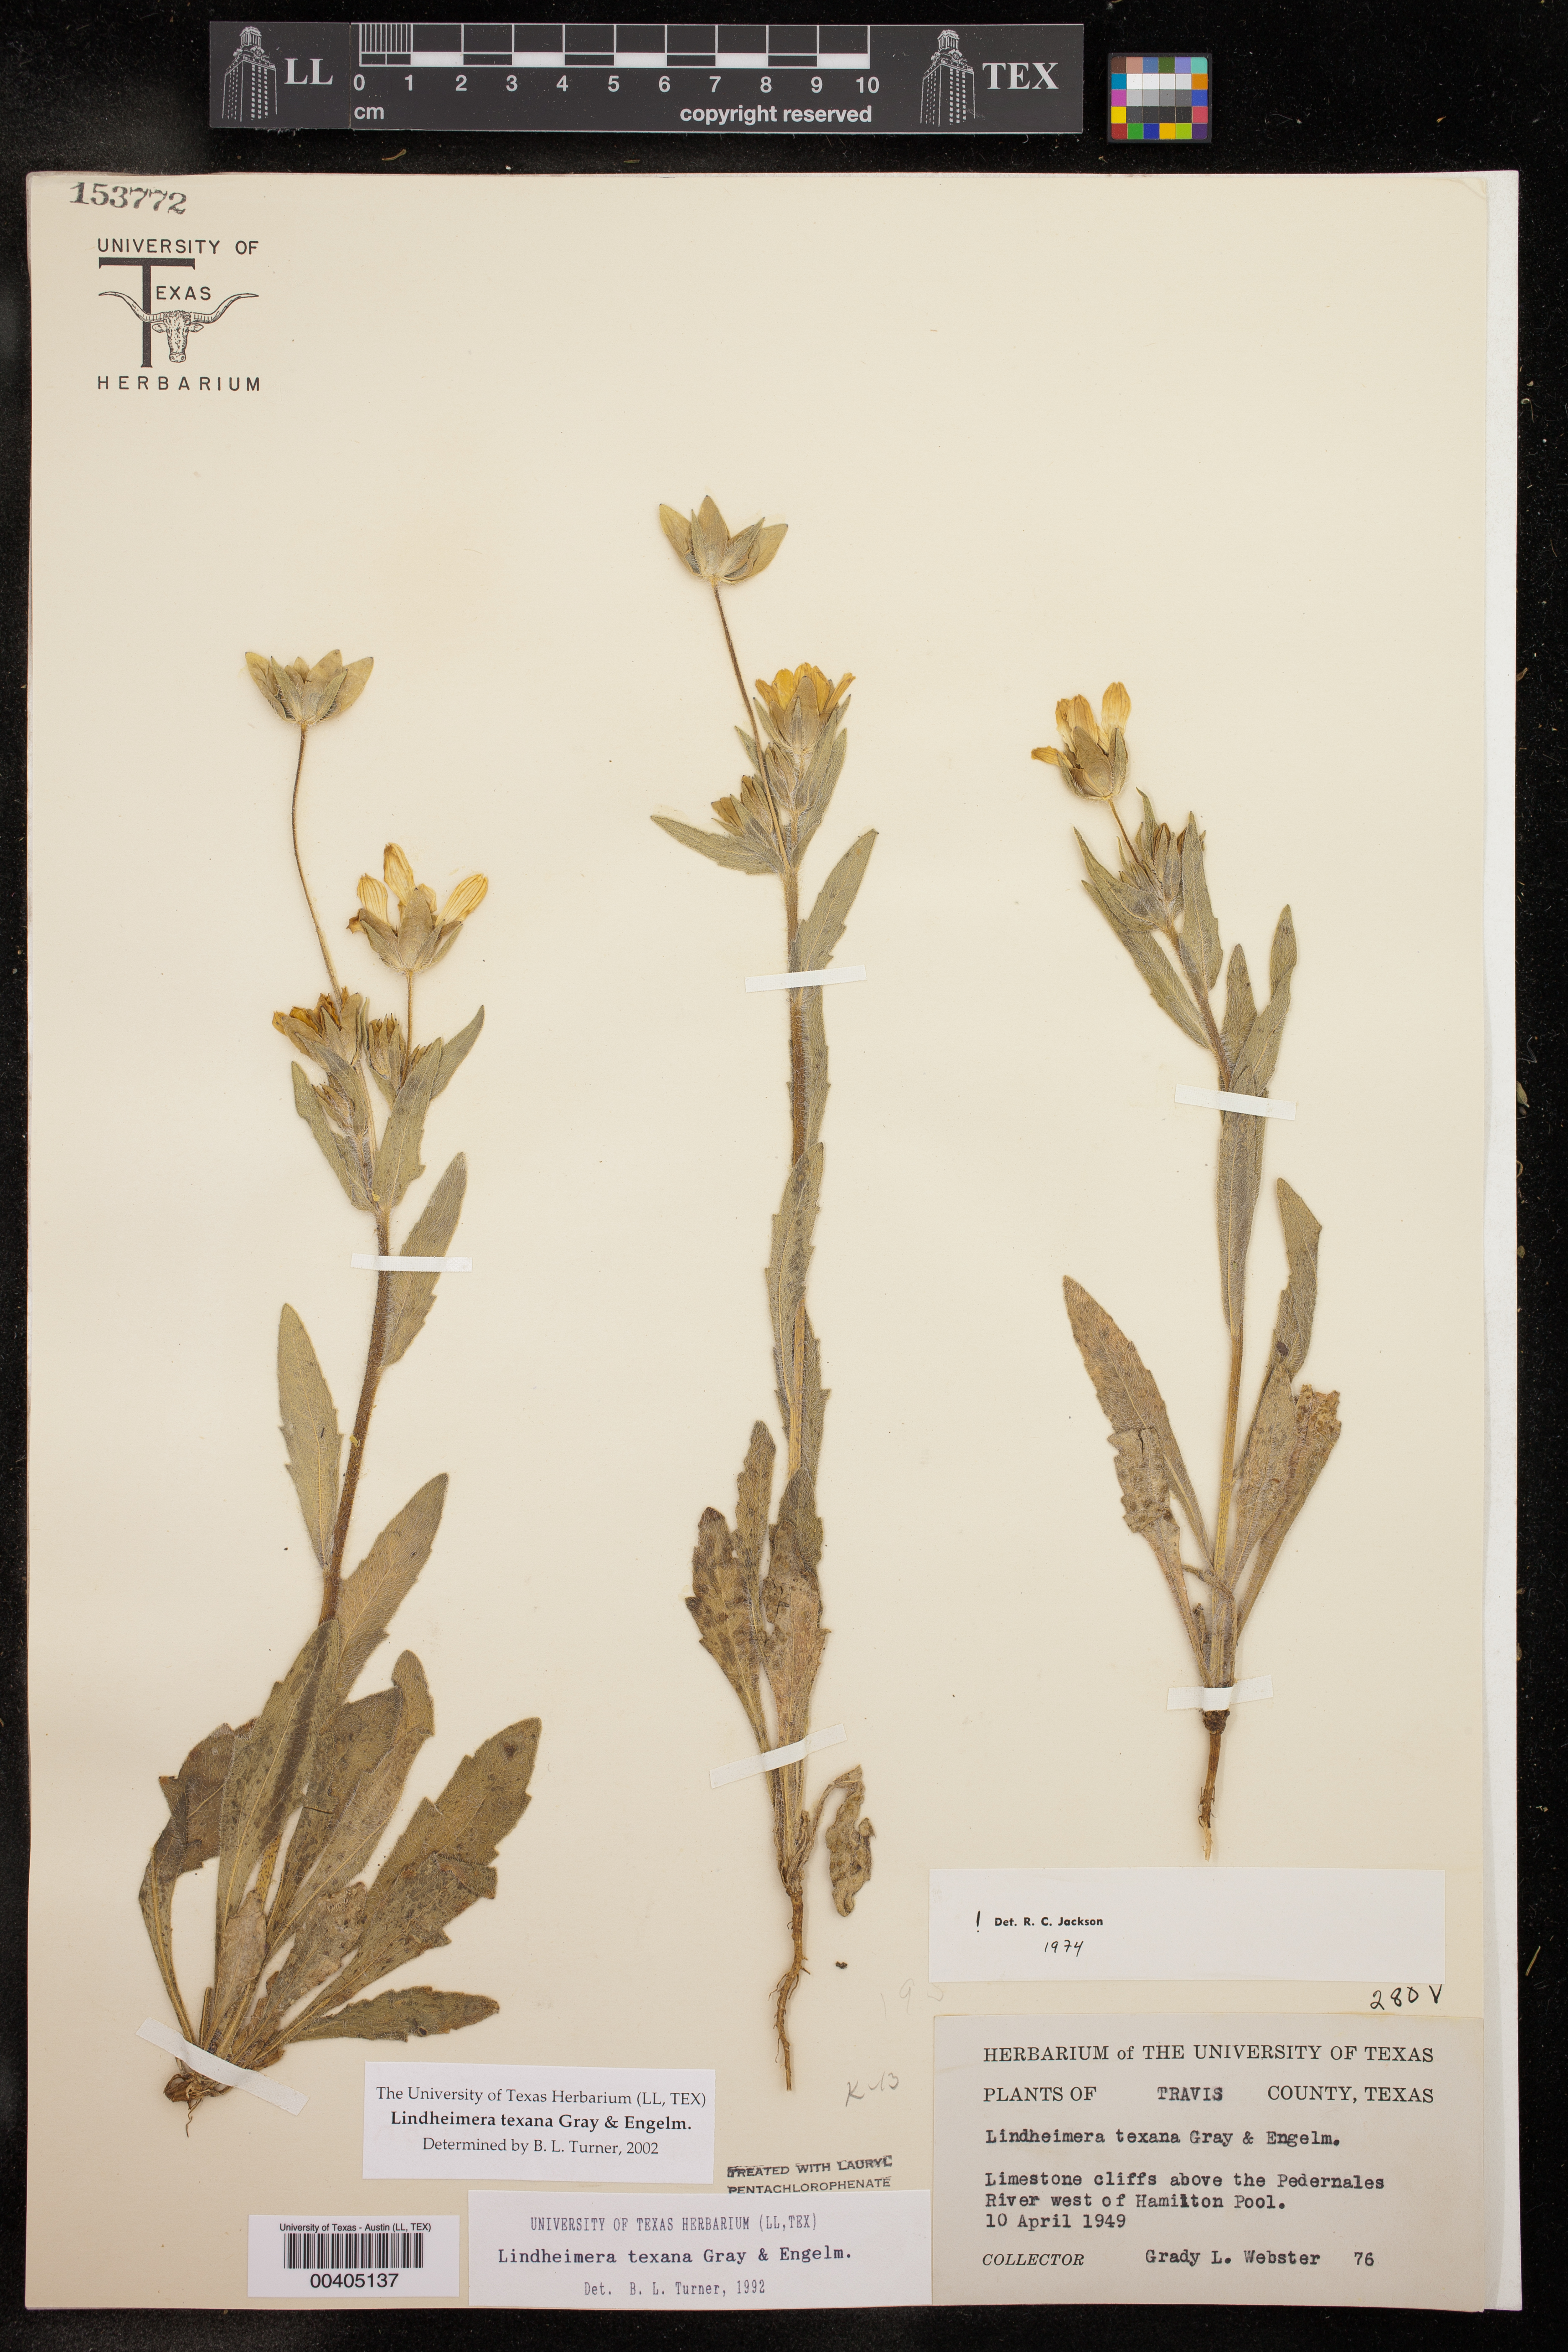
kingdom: Plantae
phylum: Tracheophyta
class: Magnoliopsida
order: Asterales
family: Asteraceae
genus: Lindheimera
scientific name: Lindheimera texana
